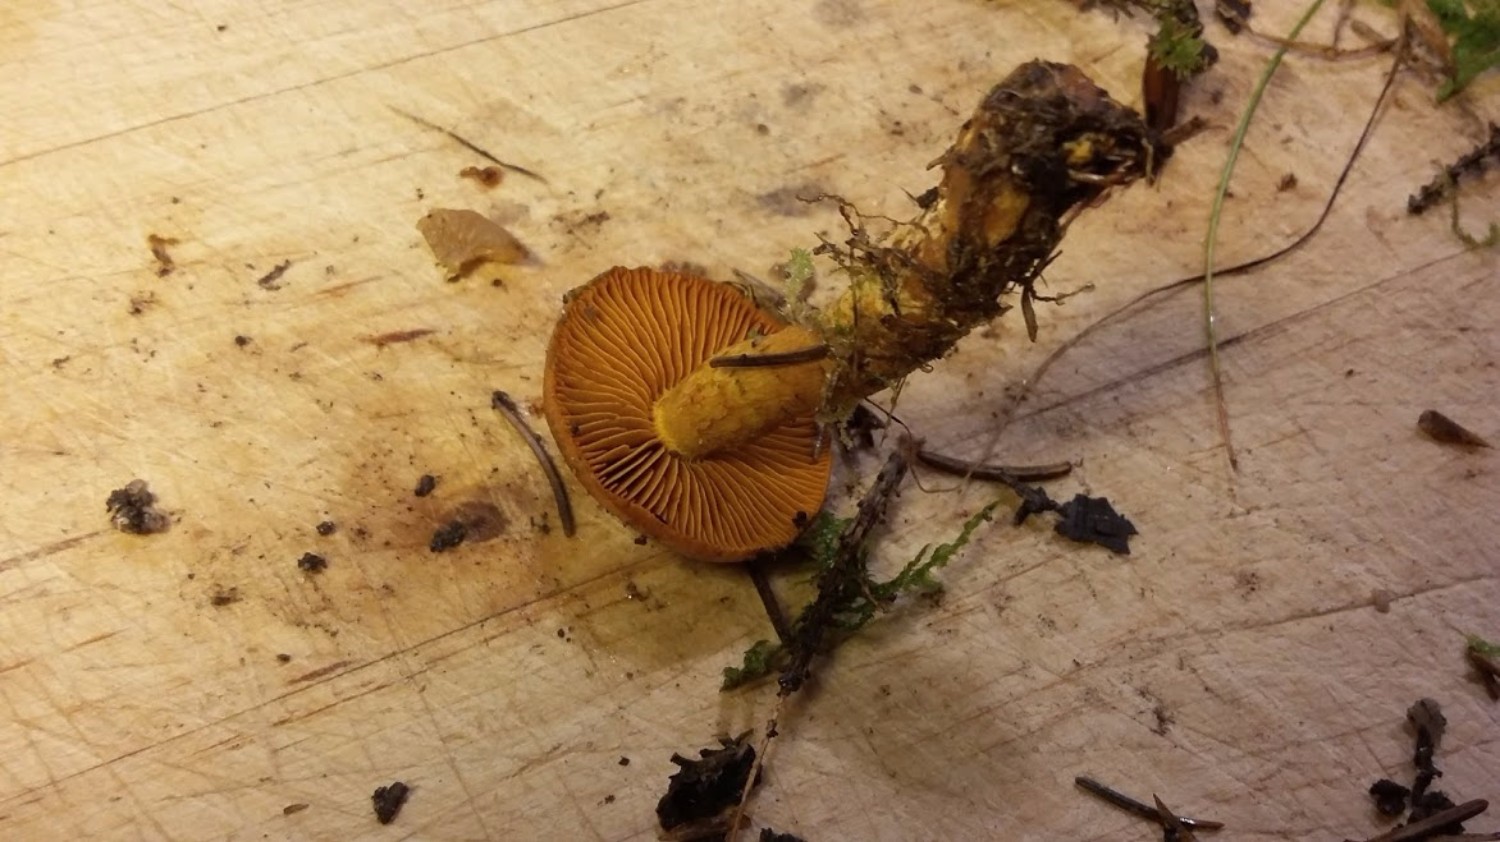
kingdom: Fungi
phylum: Basidiomycota
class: Agaricomycetes
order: Agaricales
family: Cortinariaceae
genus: Cortinarius
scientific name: Cortinarius malicorius
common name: grønkødet slørhat
